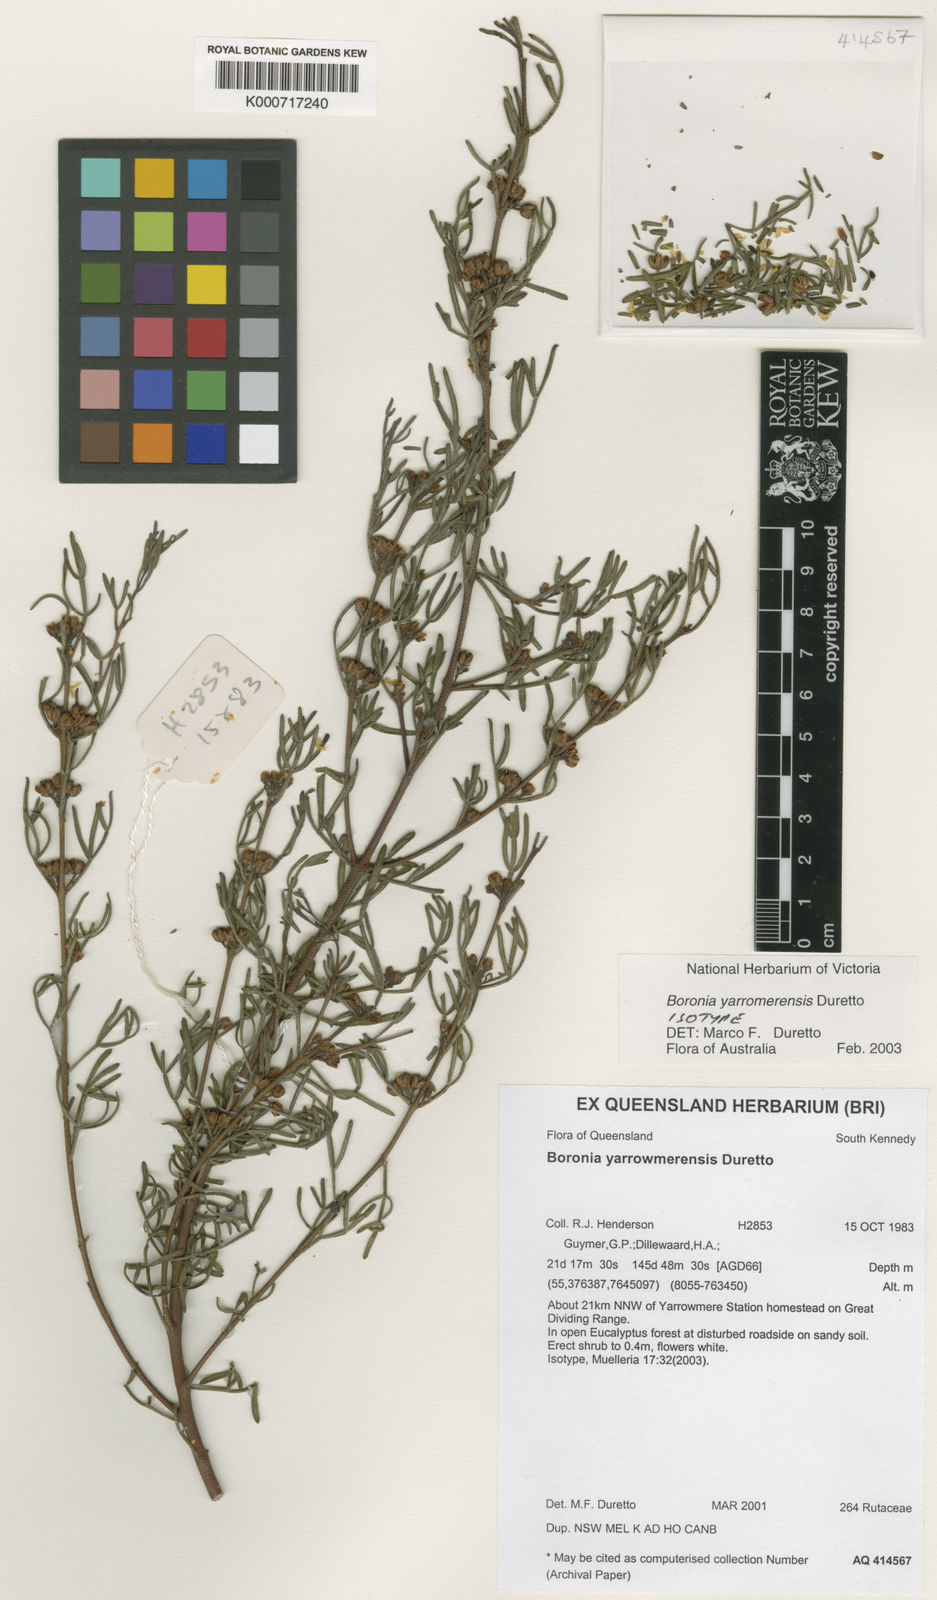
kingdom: Plantae
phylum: Tracheophyta
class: Magnoliopsida
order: Sapindales
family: Rutaceae
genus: Cyanothamnus
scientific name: Cyanothamnus yarrowmerensis
